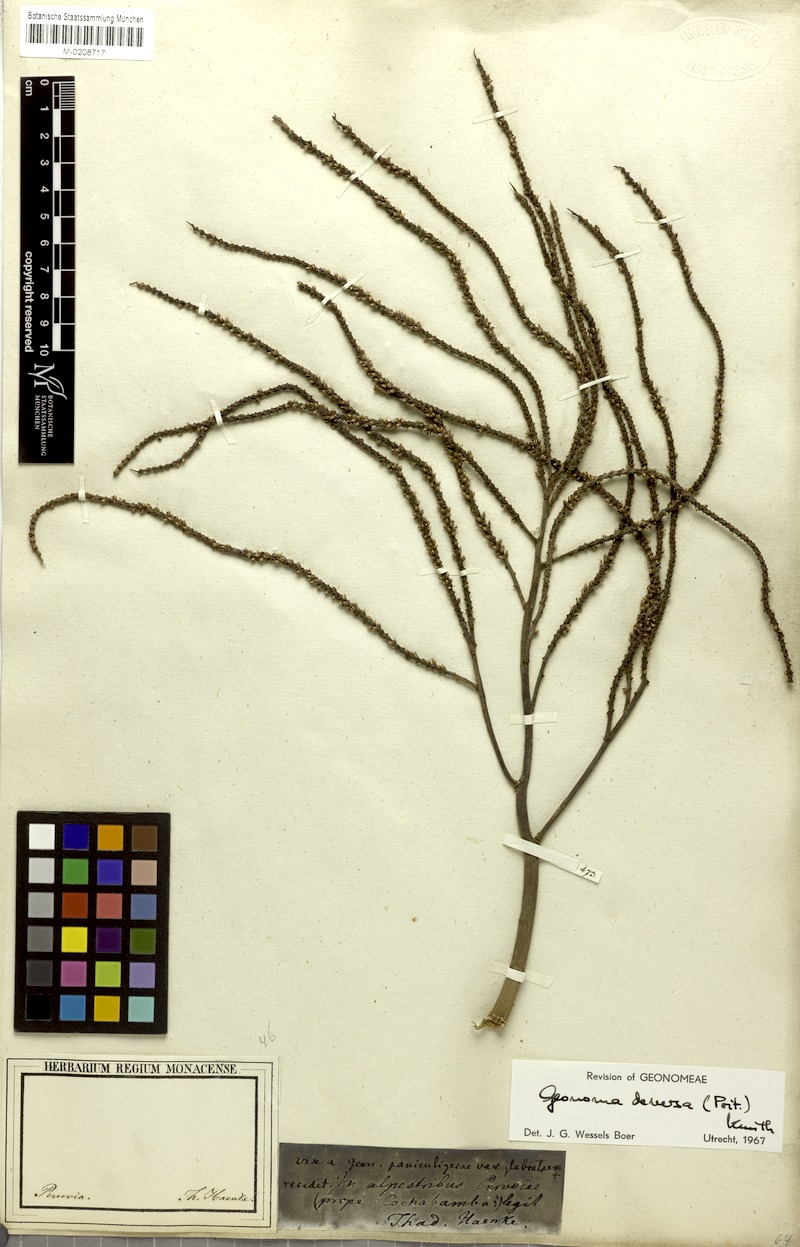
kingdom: Plantae
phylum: Tracheophyta
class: Liliopsida
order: Arecales
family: Arecaceae
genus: Geonoma
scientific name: Geonoma deversa
